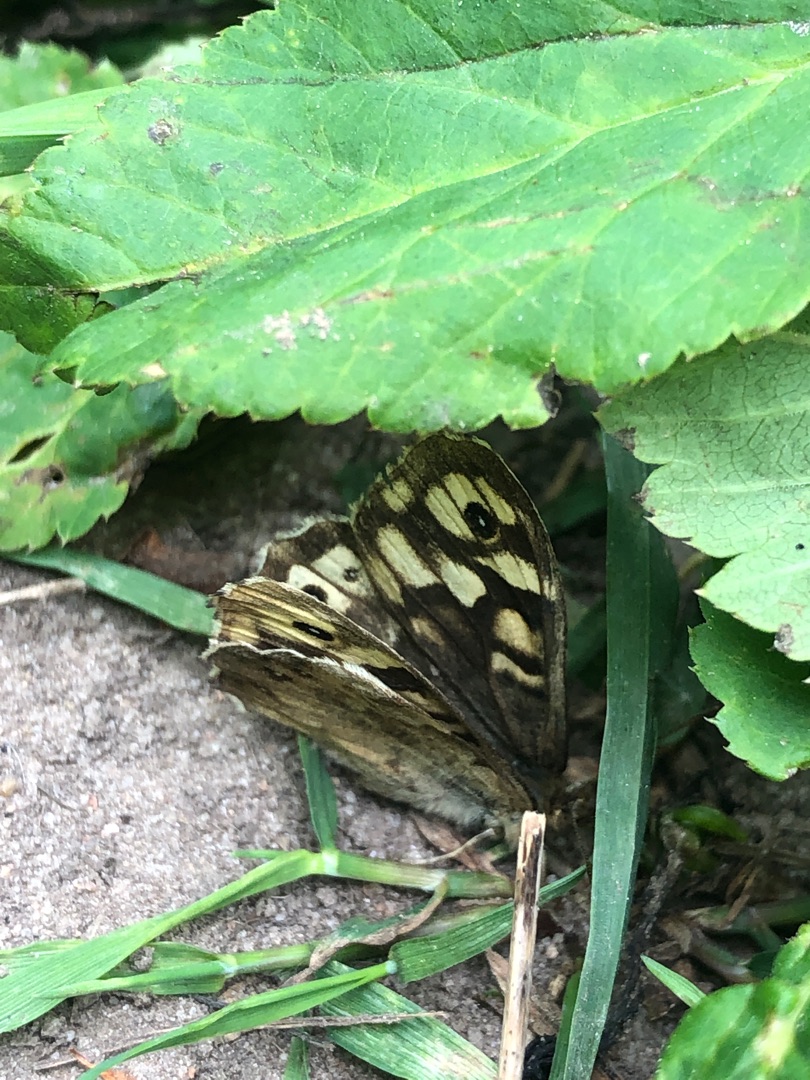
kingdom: Animalia
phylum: Arthropoda
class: Insecta
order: Lepidoptera
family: Nymphalidae
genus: Pararge
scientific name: Pararge aegeria
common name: Skovrandøje
